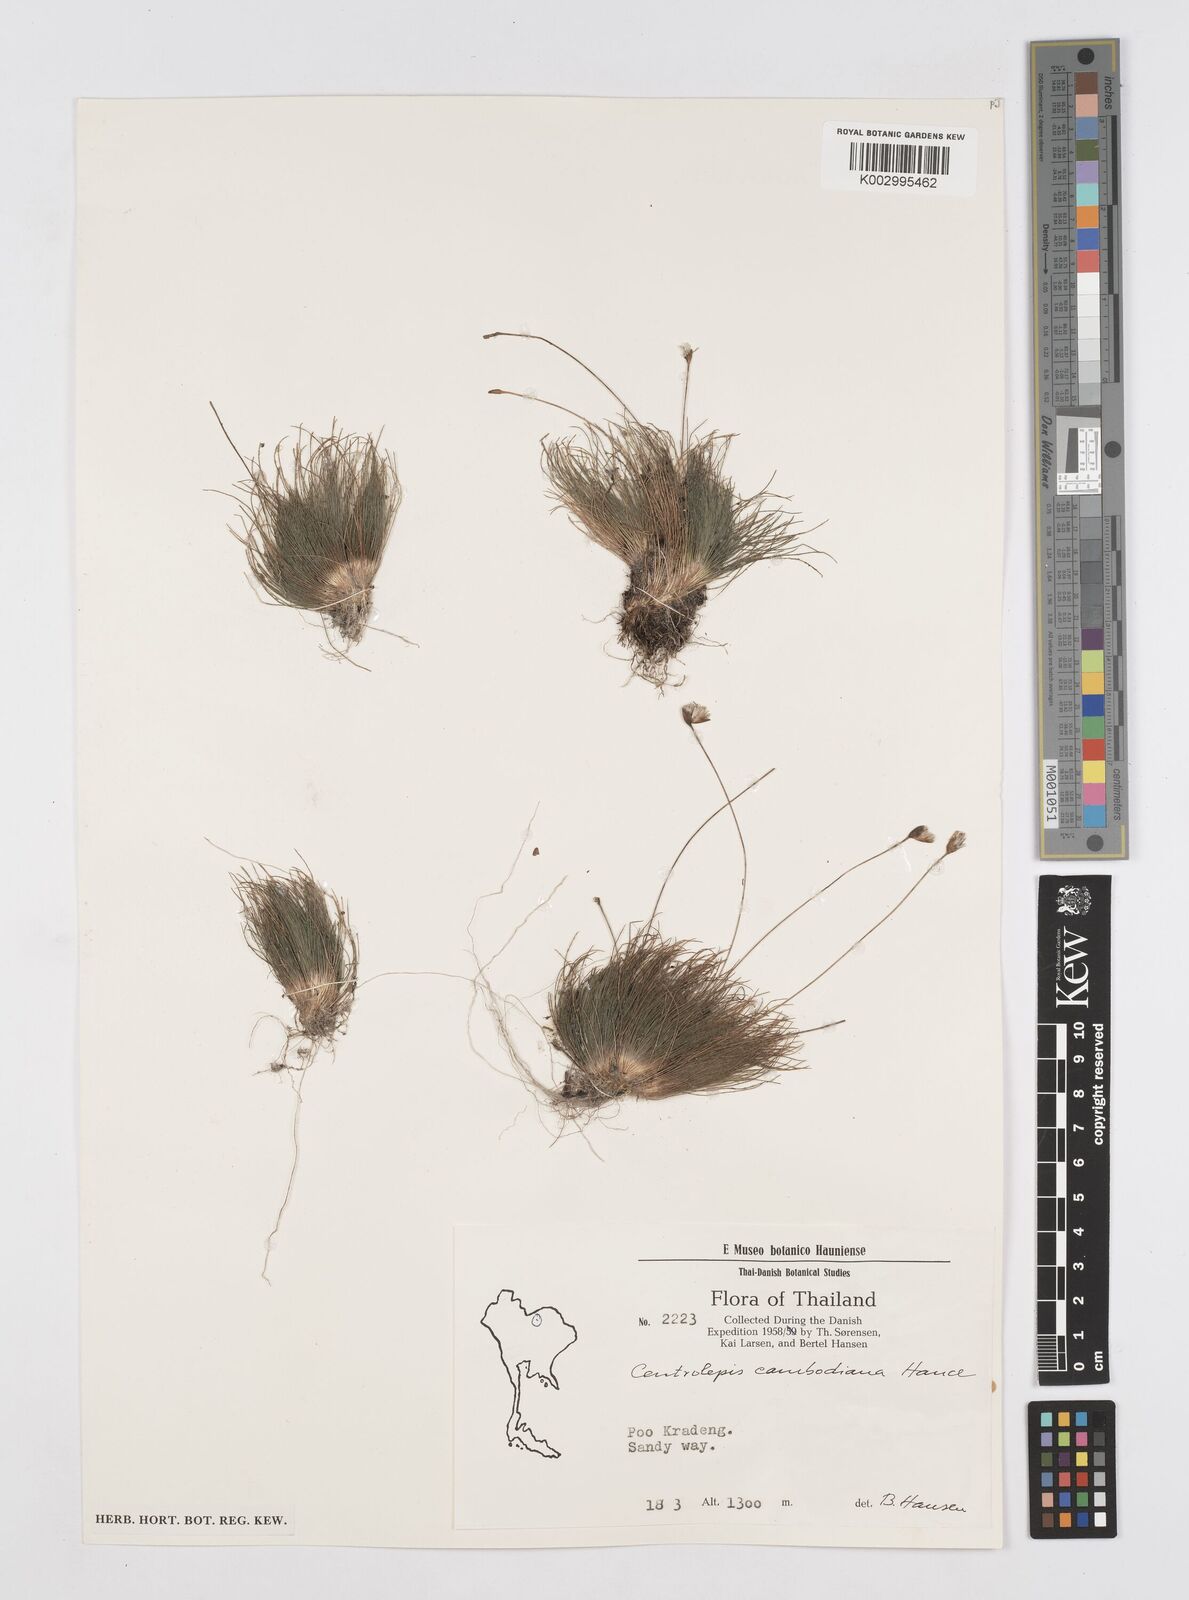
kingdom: Plantae
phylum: Tracheophyta
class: Liliopsida
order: Poales
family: Restionaceae
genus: Centrolepis
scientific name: Centrolepis cambodiana
